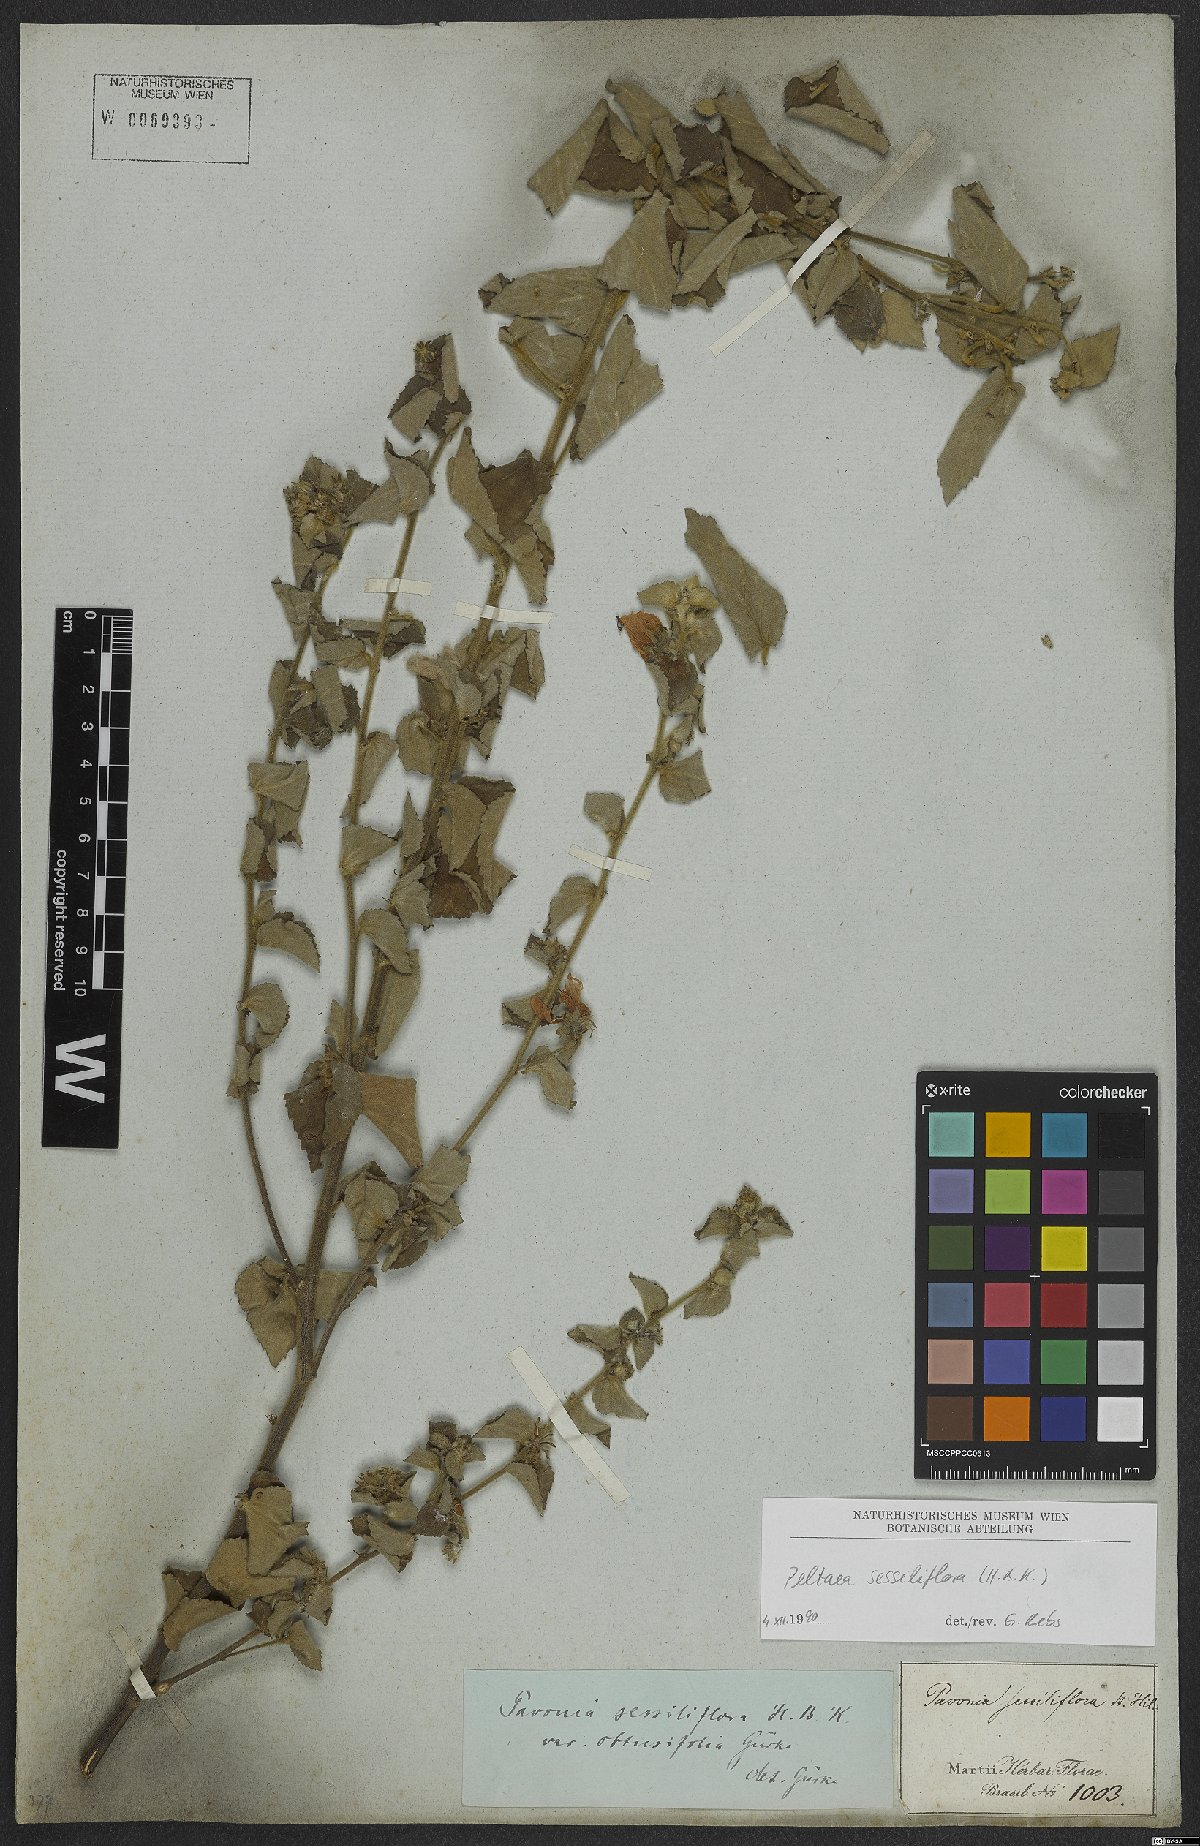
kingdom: Plantae
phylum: Tracheophyta
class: Magnoliopsida
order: Malvales
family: Malvaceae
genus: Peltaea
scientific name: Peltaea sessiliflora
